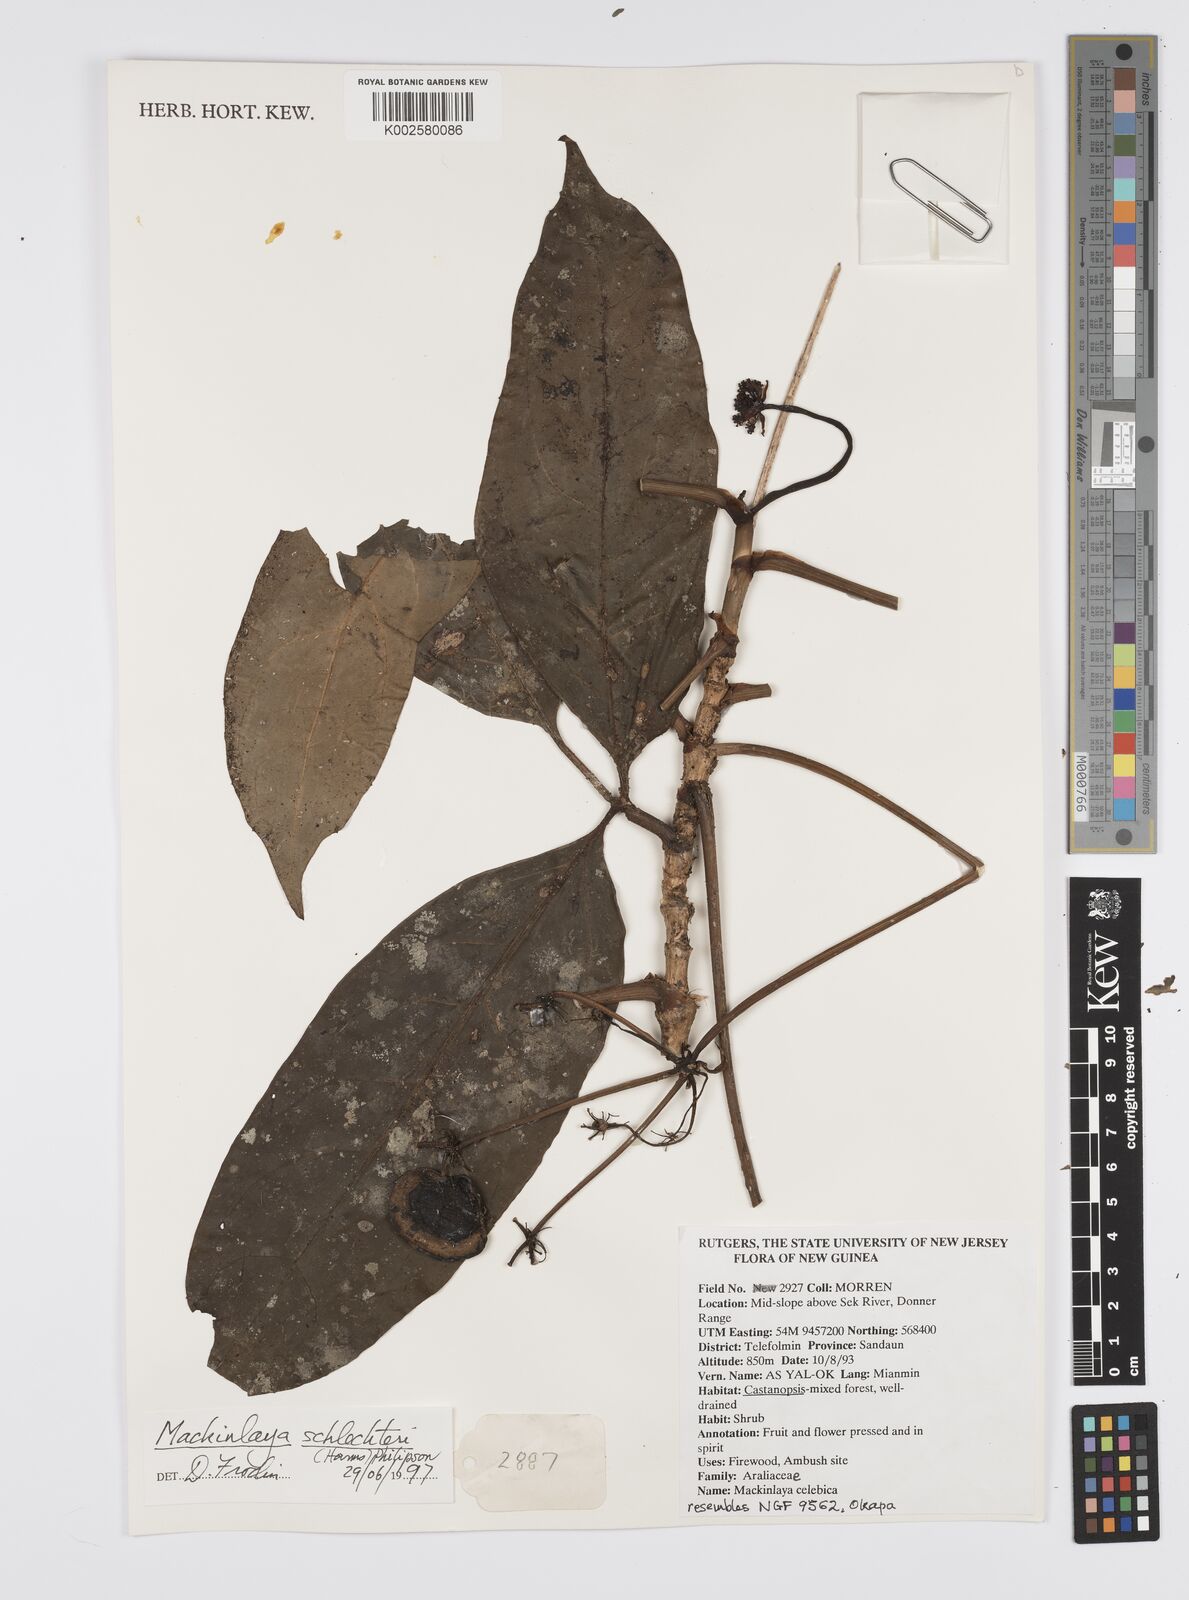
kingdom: Plantae
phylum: Tracheophyta
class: Magnoliopsida
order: Apiales
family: Apiaceae
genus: Mackinlaya
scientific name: Mackinlaya schlechteri
